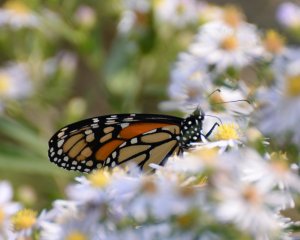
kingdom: Animalia
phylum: Arthropoda
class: Insecta
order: Lepidoptera
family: Nymphalidae
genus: Danaus
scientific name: Danaus plexippus
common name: Monarch
